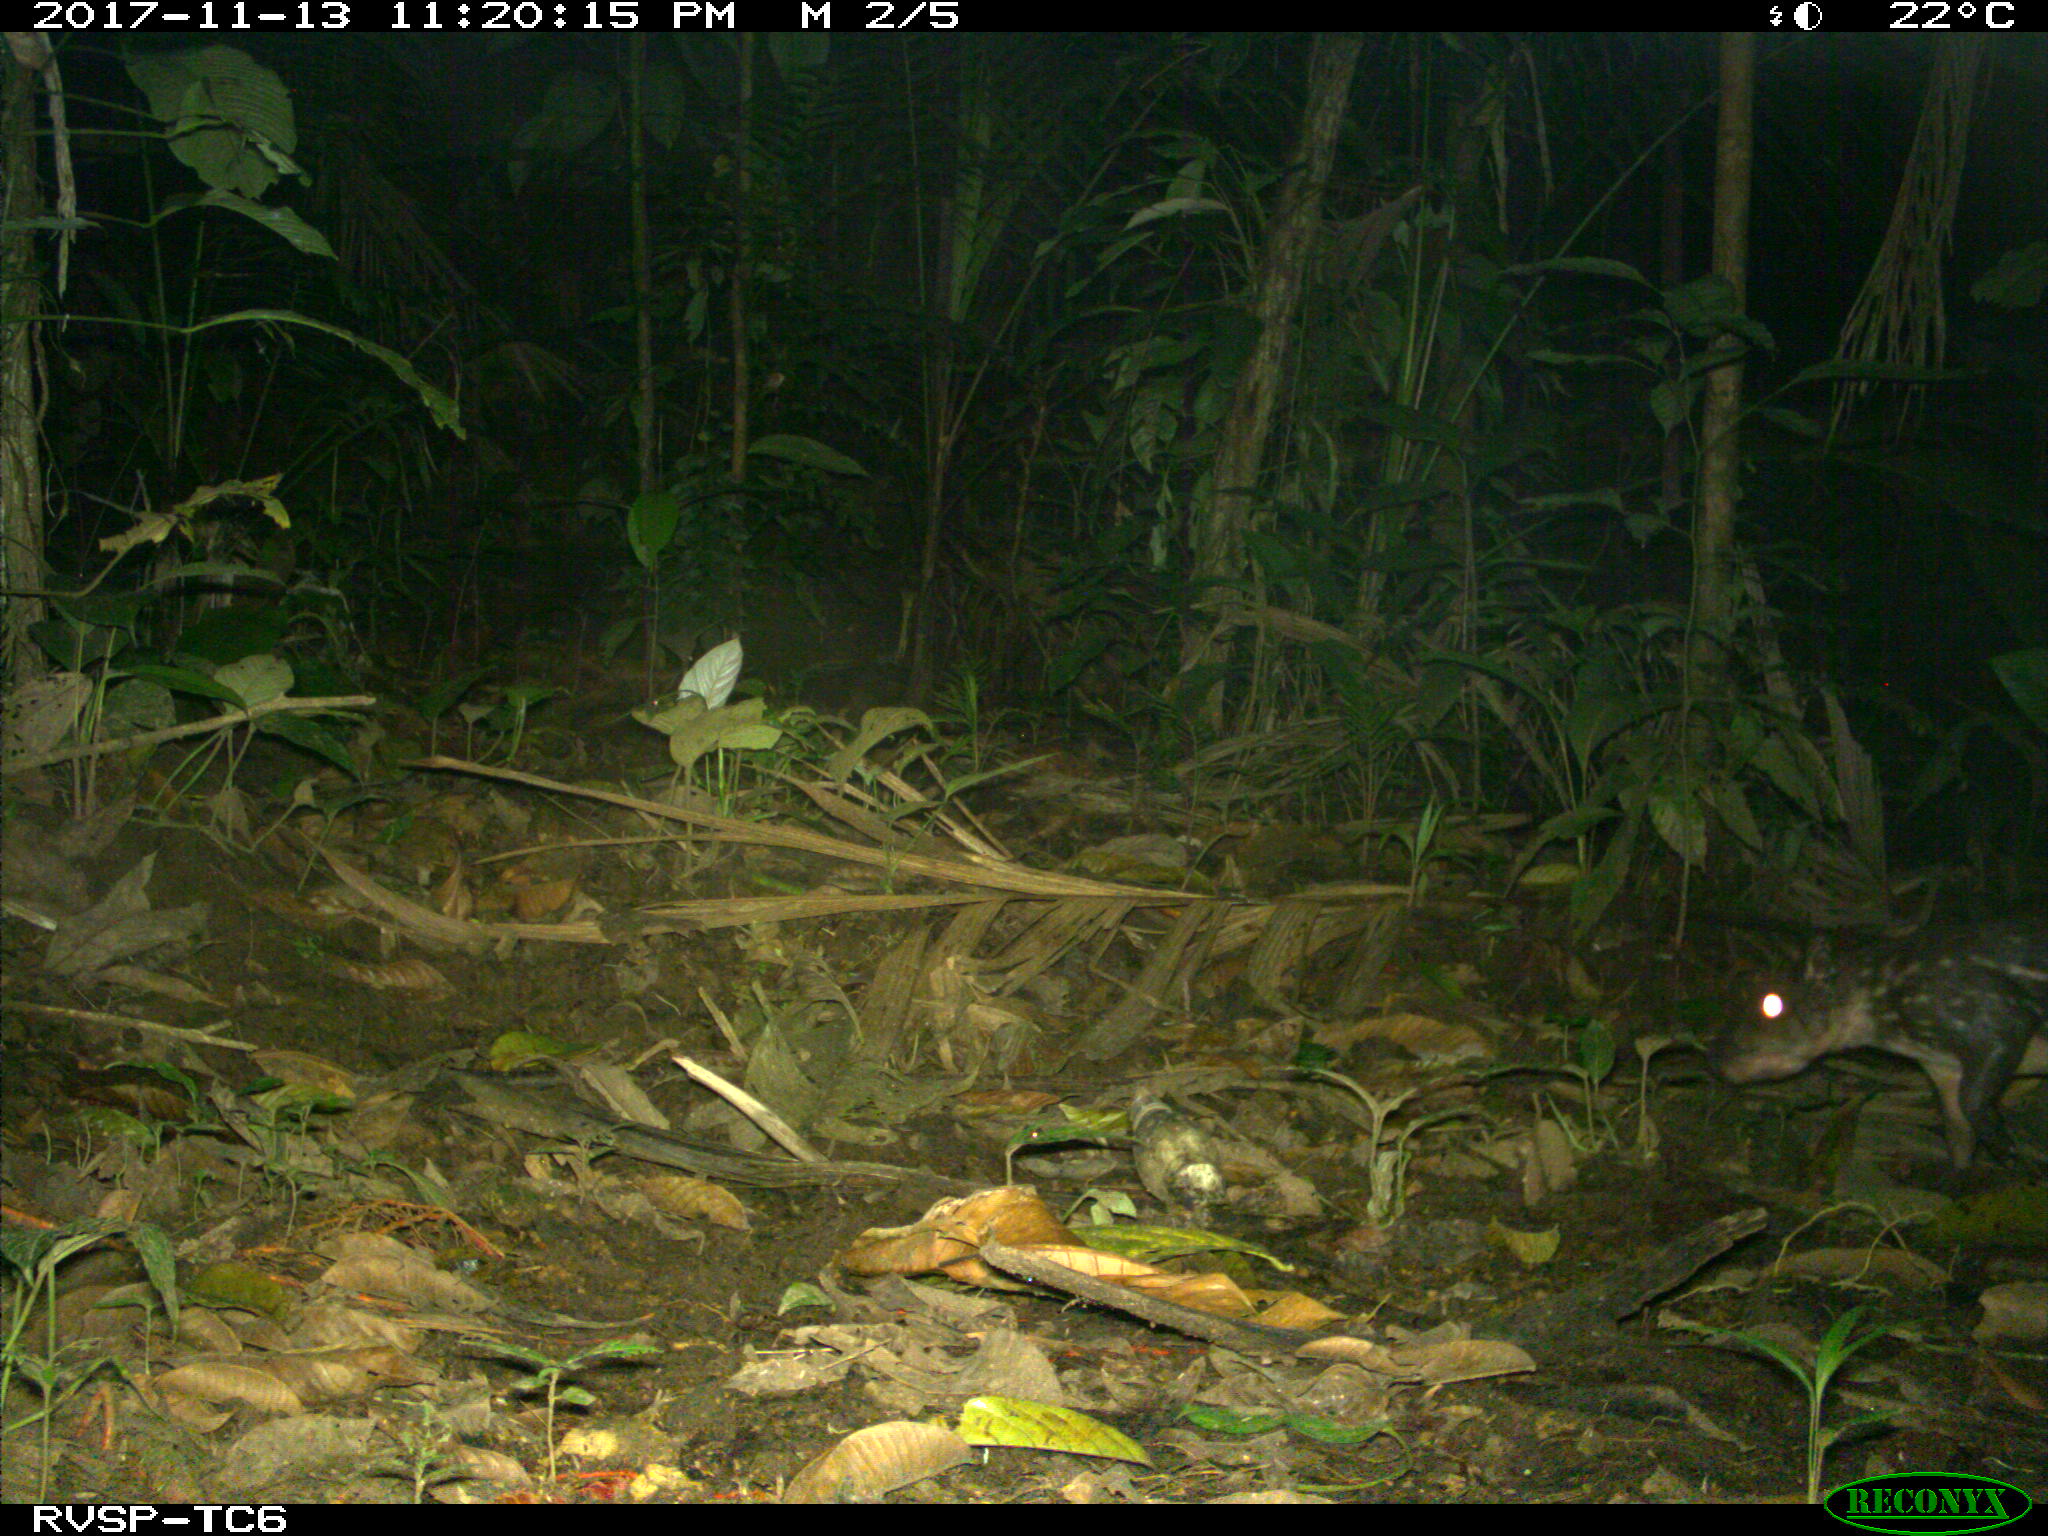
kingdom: Animalia
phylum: Chordata
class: Mammalia
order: Rodentia
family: Cuniculidae
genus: Cuniculus
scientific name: Cuniculus paca
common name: Lowland paca
